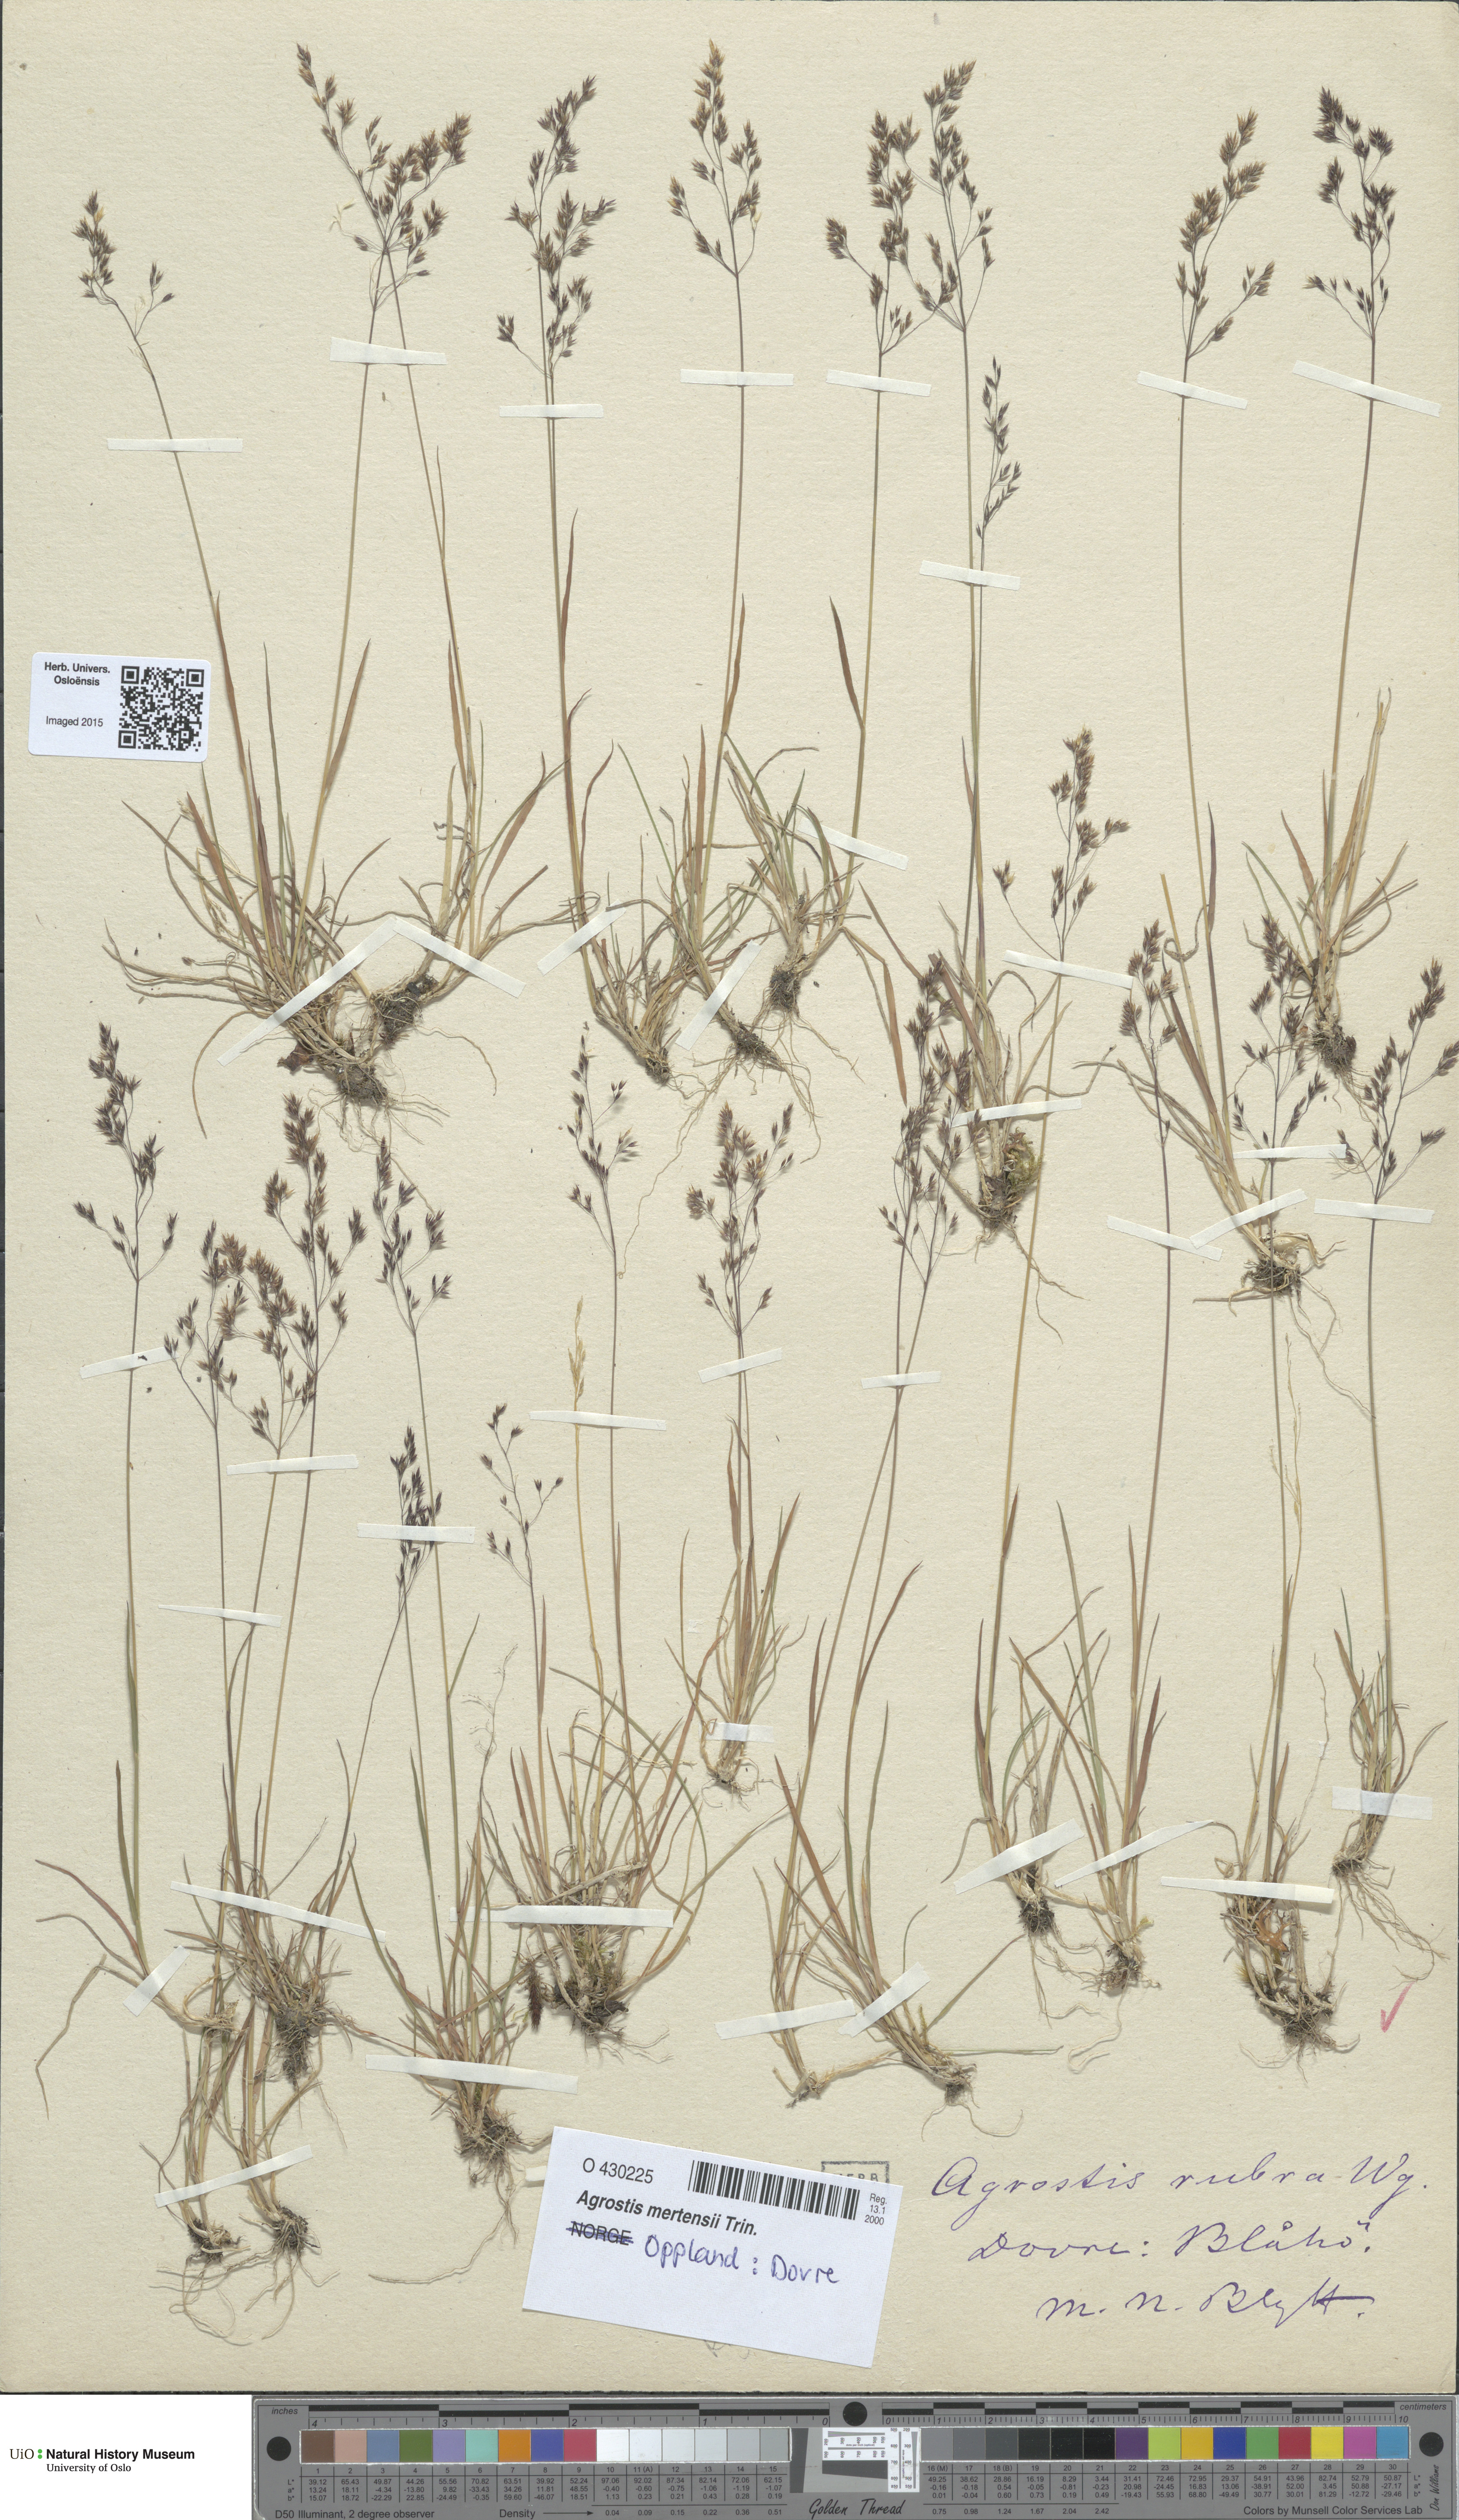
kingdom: Plantae
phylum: Tracheophyta
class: Liliopsida
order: Poales
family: Poaceae
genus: Agrostis
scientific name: Agrostis mertensii
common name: Northern bent
